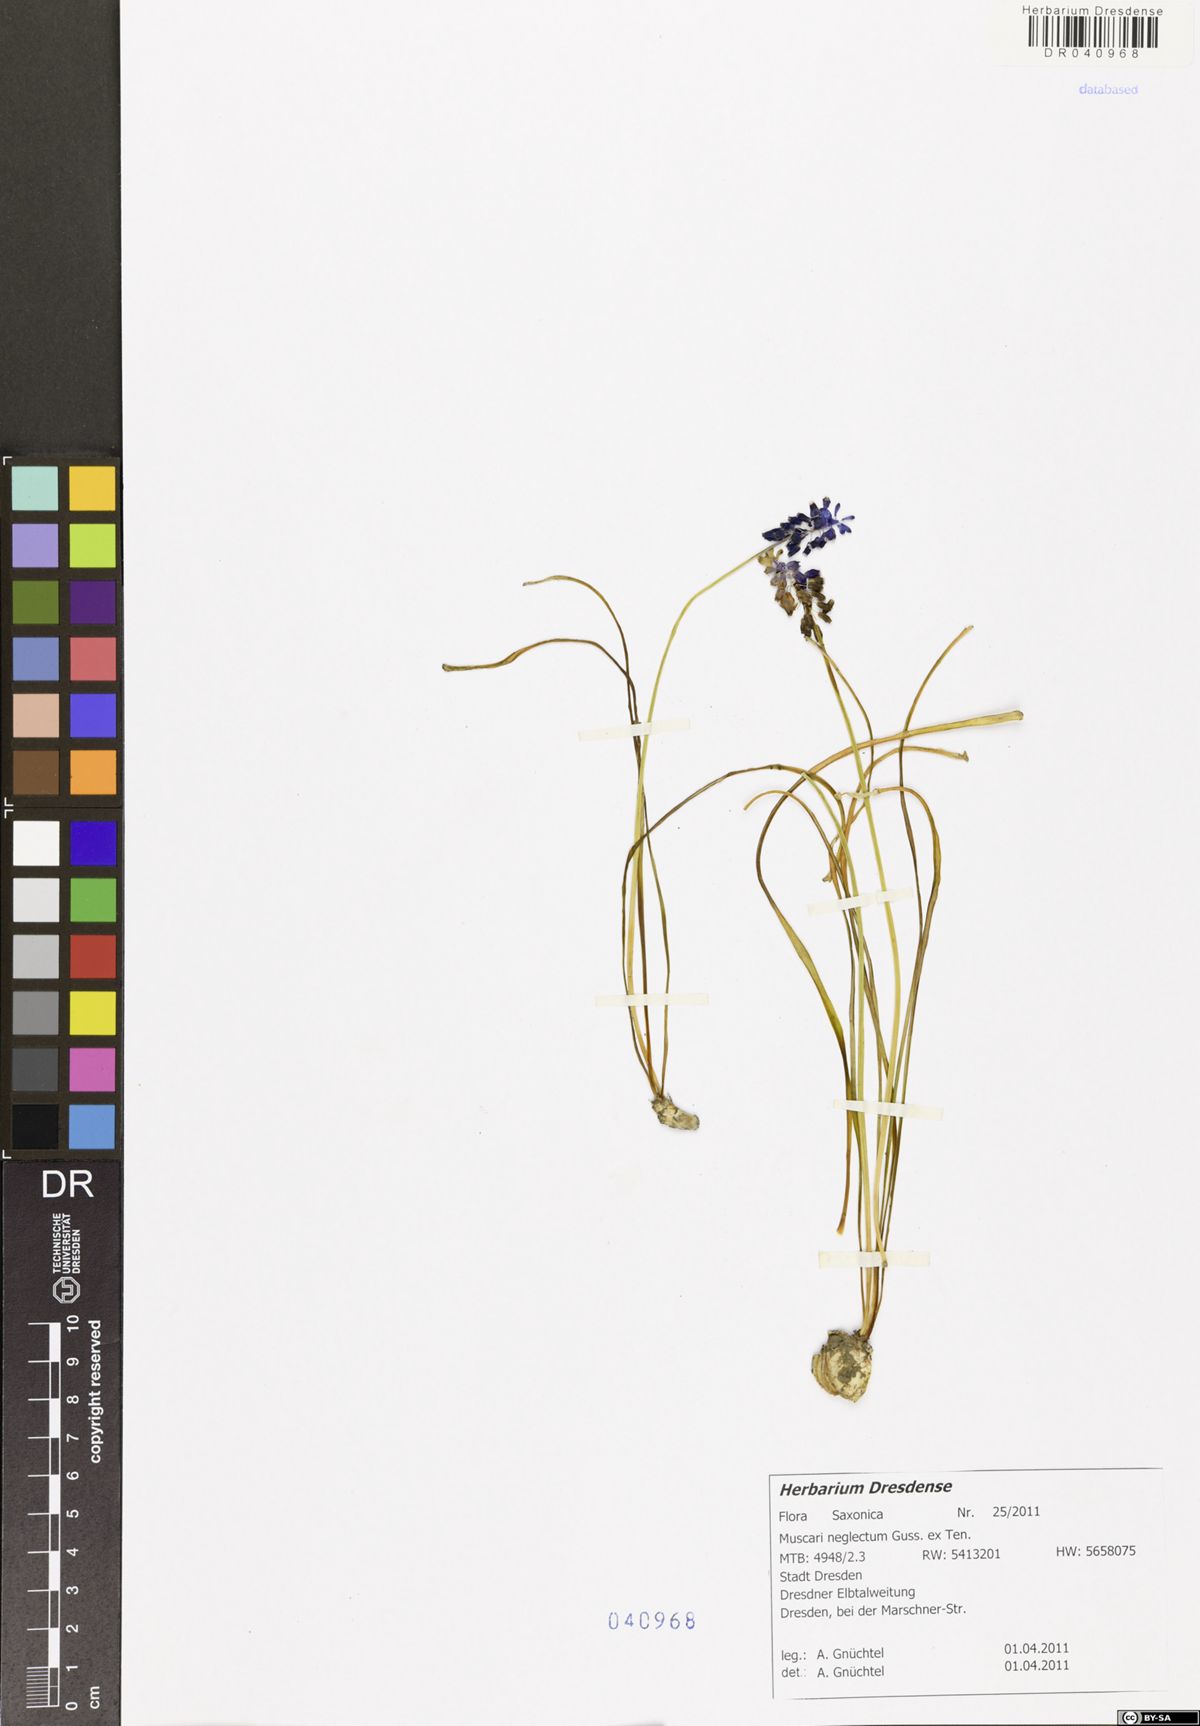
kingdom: Plantae
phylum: Tracheophyta
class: Liliopsida
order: Asparagales
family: Asparagaceae
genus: Muscari
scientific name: Muscari neglectum
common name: Grape-hyacinth
